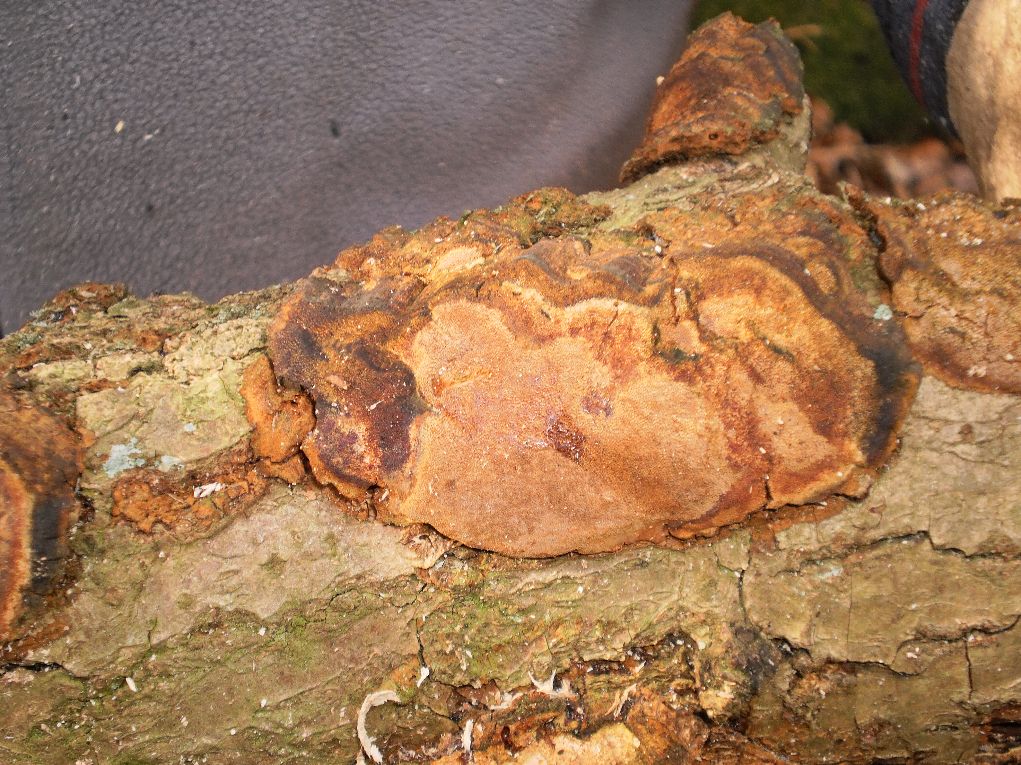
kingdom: Fungi
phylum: Basidiomycota
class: Agaricomycetes
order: Hymenochaetales
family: Hymenochaetaceae
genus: Fuscoporia
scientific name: Fuscoporia ferrea
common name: skorpe-ildporesvamp
